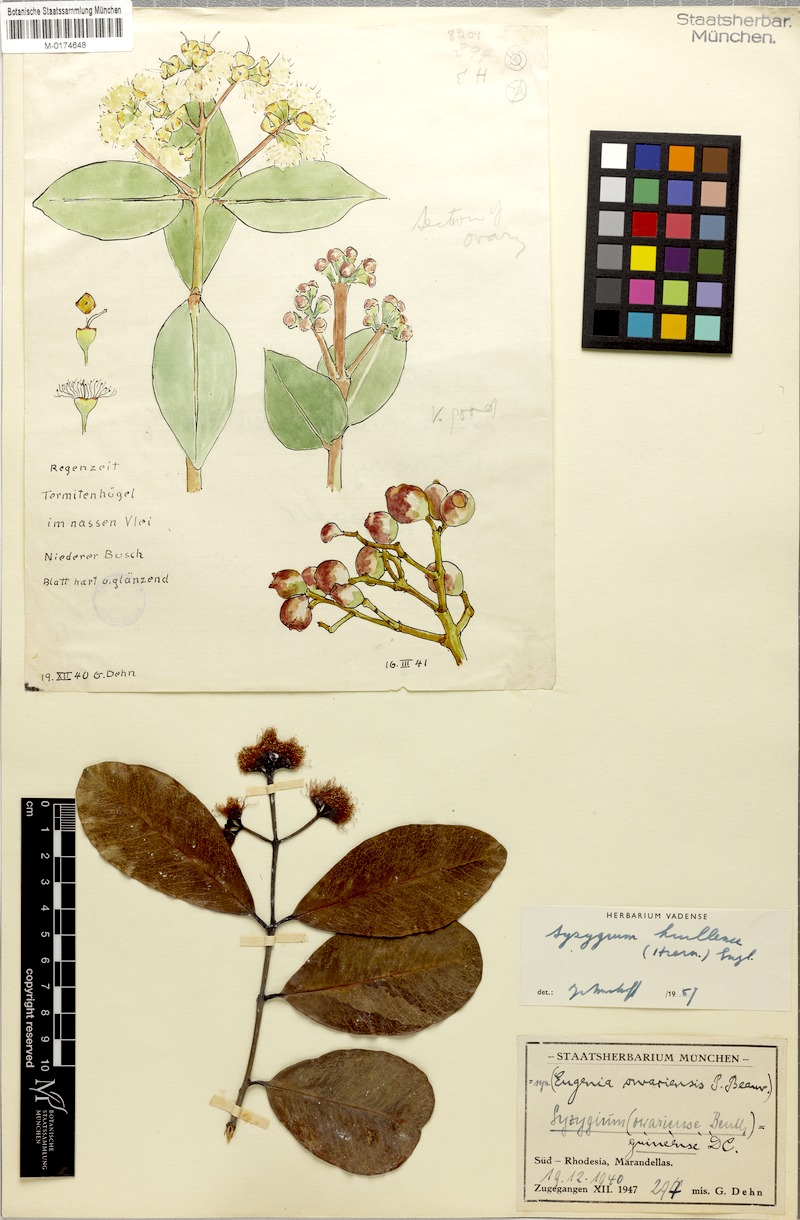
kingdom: Plantae
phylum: Tracheophyta
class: Magnoliopsida
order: Myrtales
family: Myrtaceae
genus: Syzygium
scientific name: Syzygium guineense
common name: Water-pear
